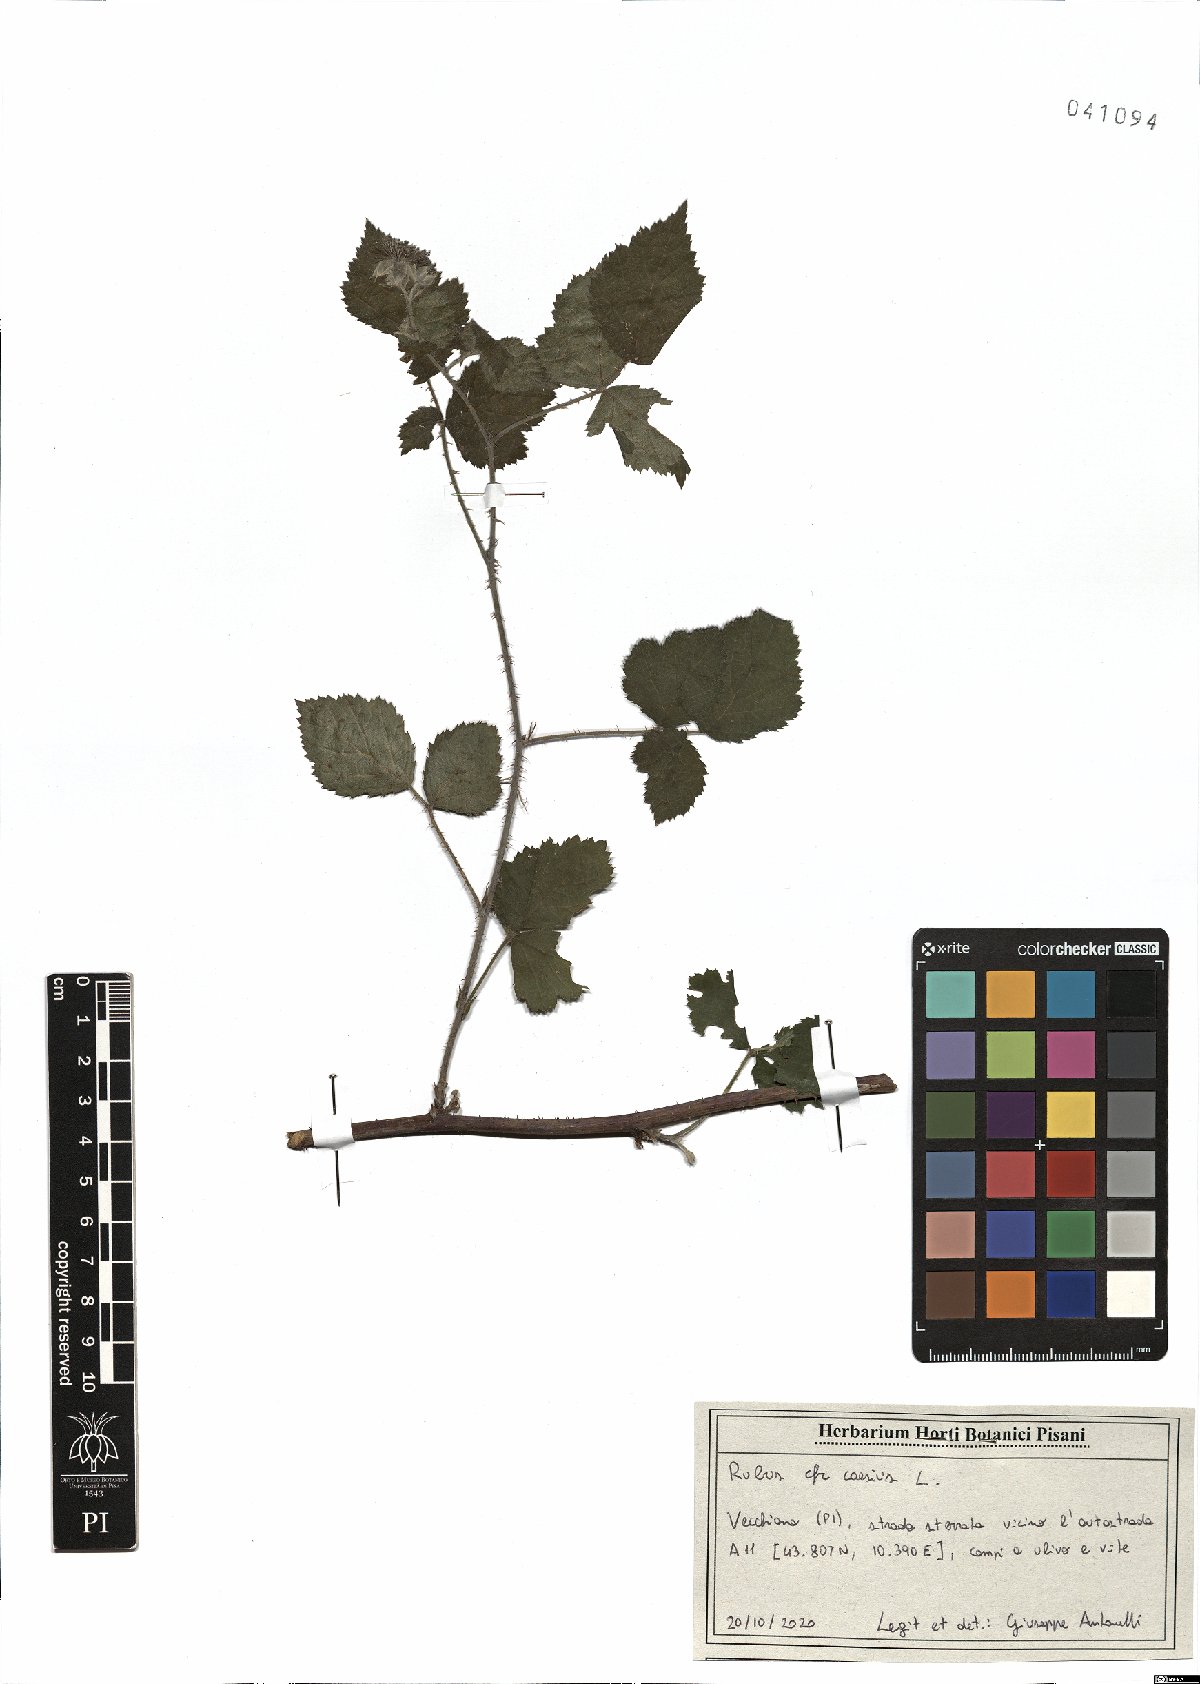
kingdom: Plantae
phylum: Tracheophyta
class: Magnoliopsida
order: Rosales
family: Rosaceae
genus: Rubus
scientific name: Rubus caesius
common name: Dewberry
